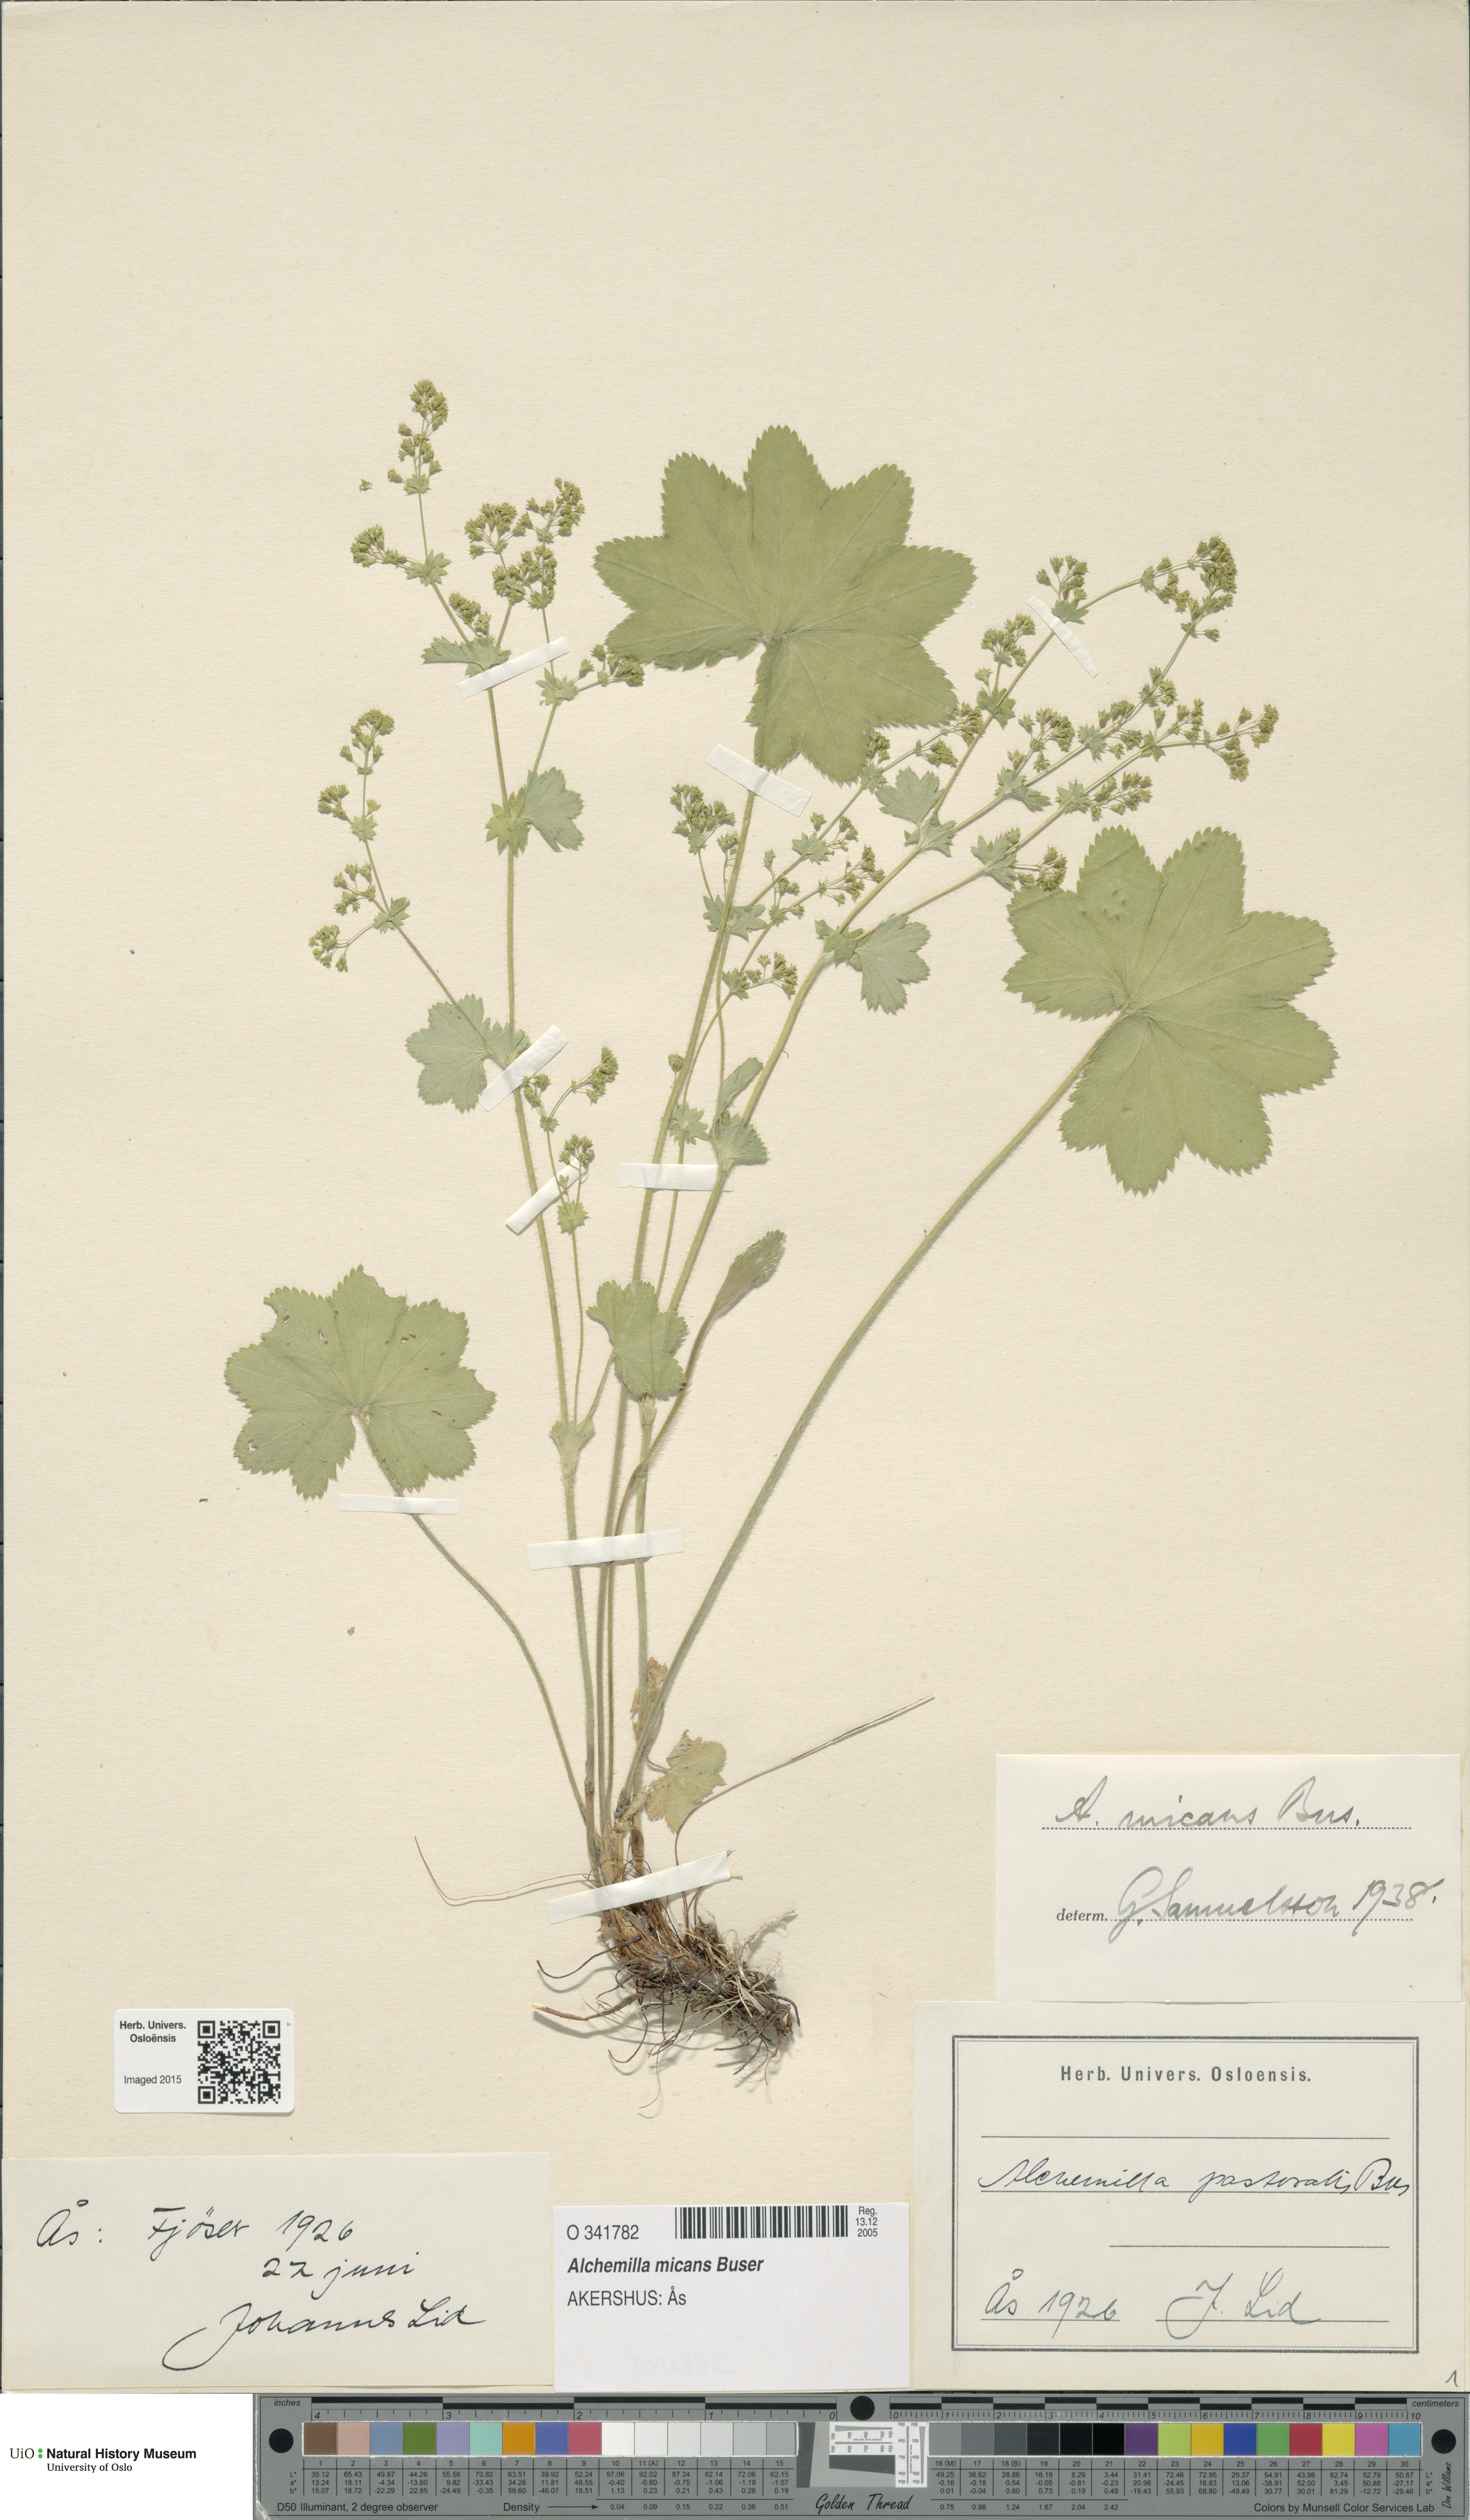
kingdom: Plantae
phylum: Tracheophyta
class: Magnoliopsida
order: Rosales
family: Rosaceae
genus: Alchemilla
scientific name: Alchemilla micans
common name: Gleaming lady's mantle
